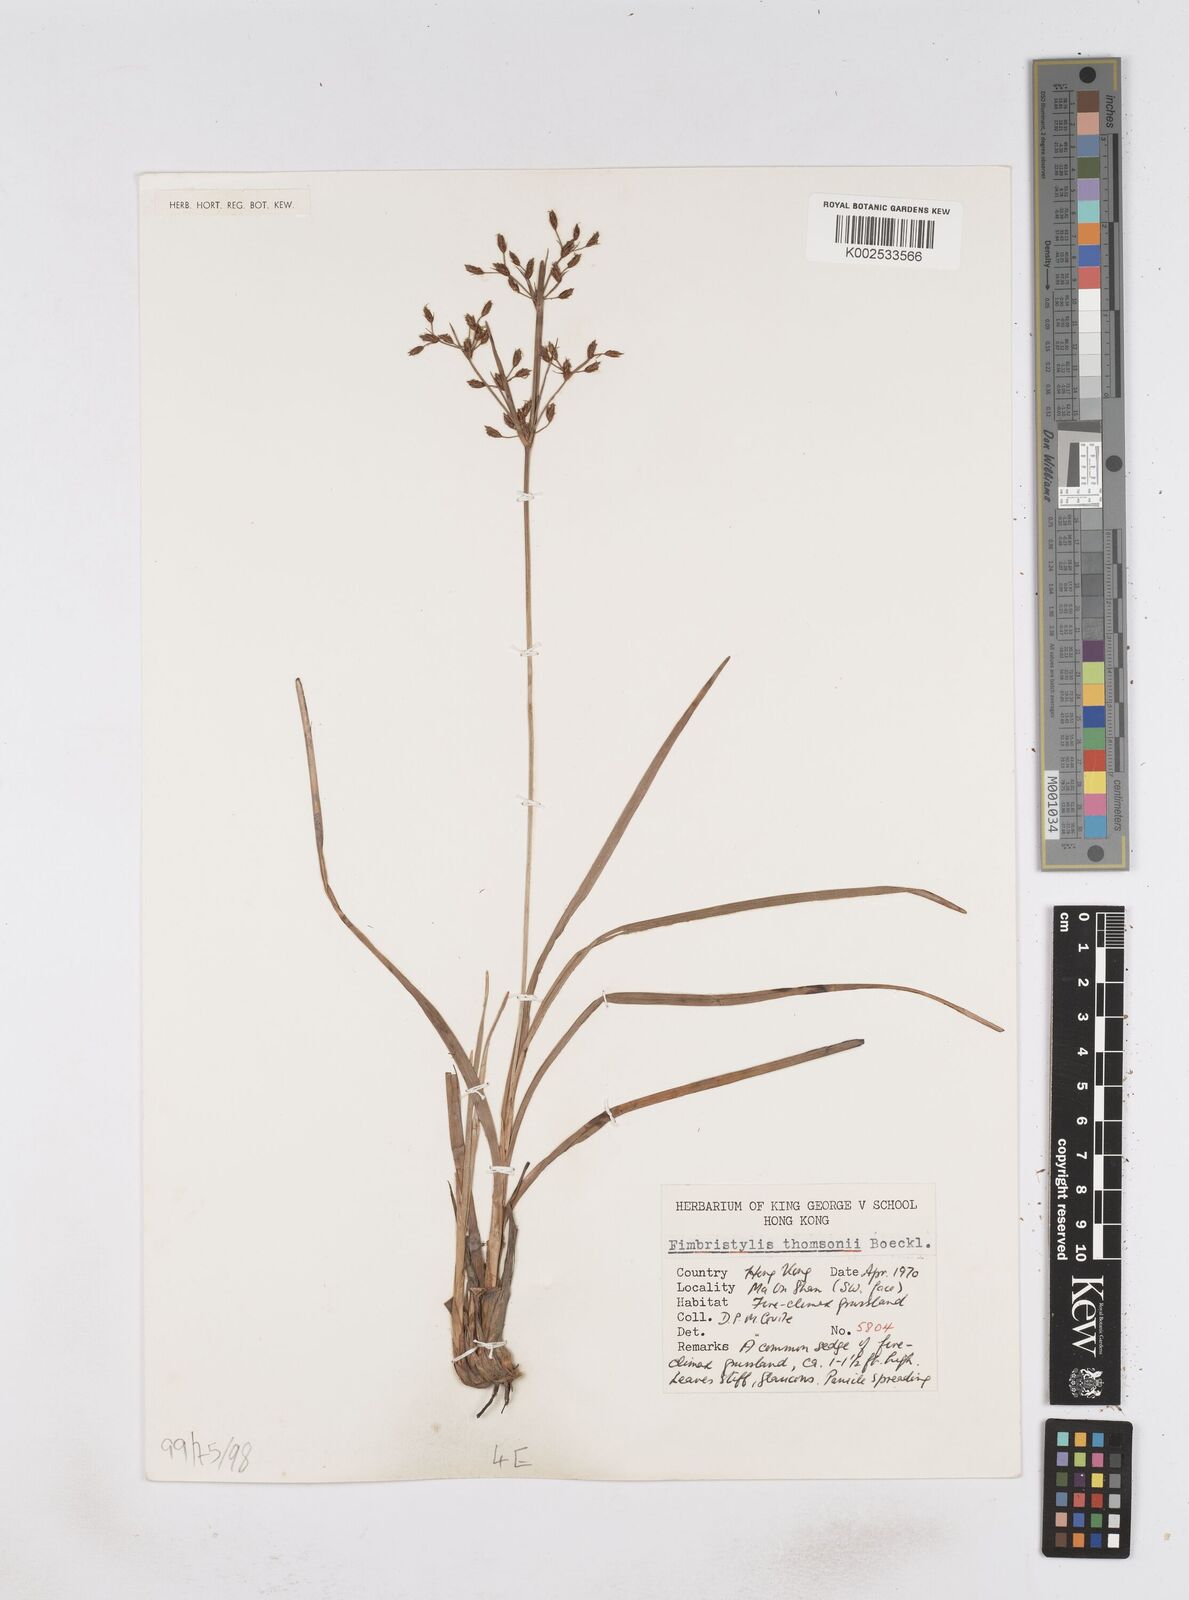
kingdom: Plantae
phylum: Tracheophyta
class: Liliopsida
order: Poales
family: Cyperaceae
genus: Fimbristylis
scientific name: Fimbristylis thomsonii
